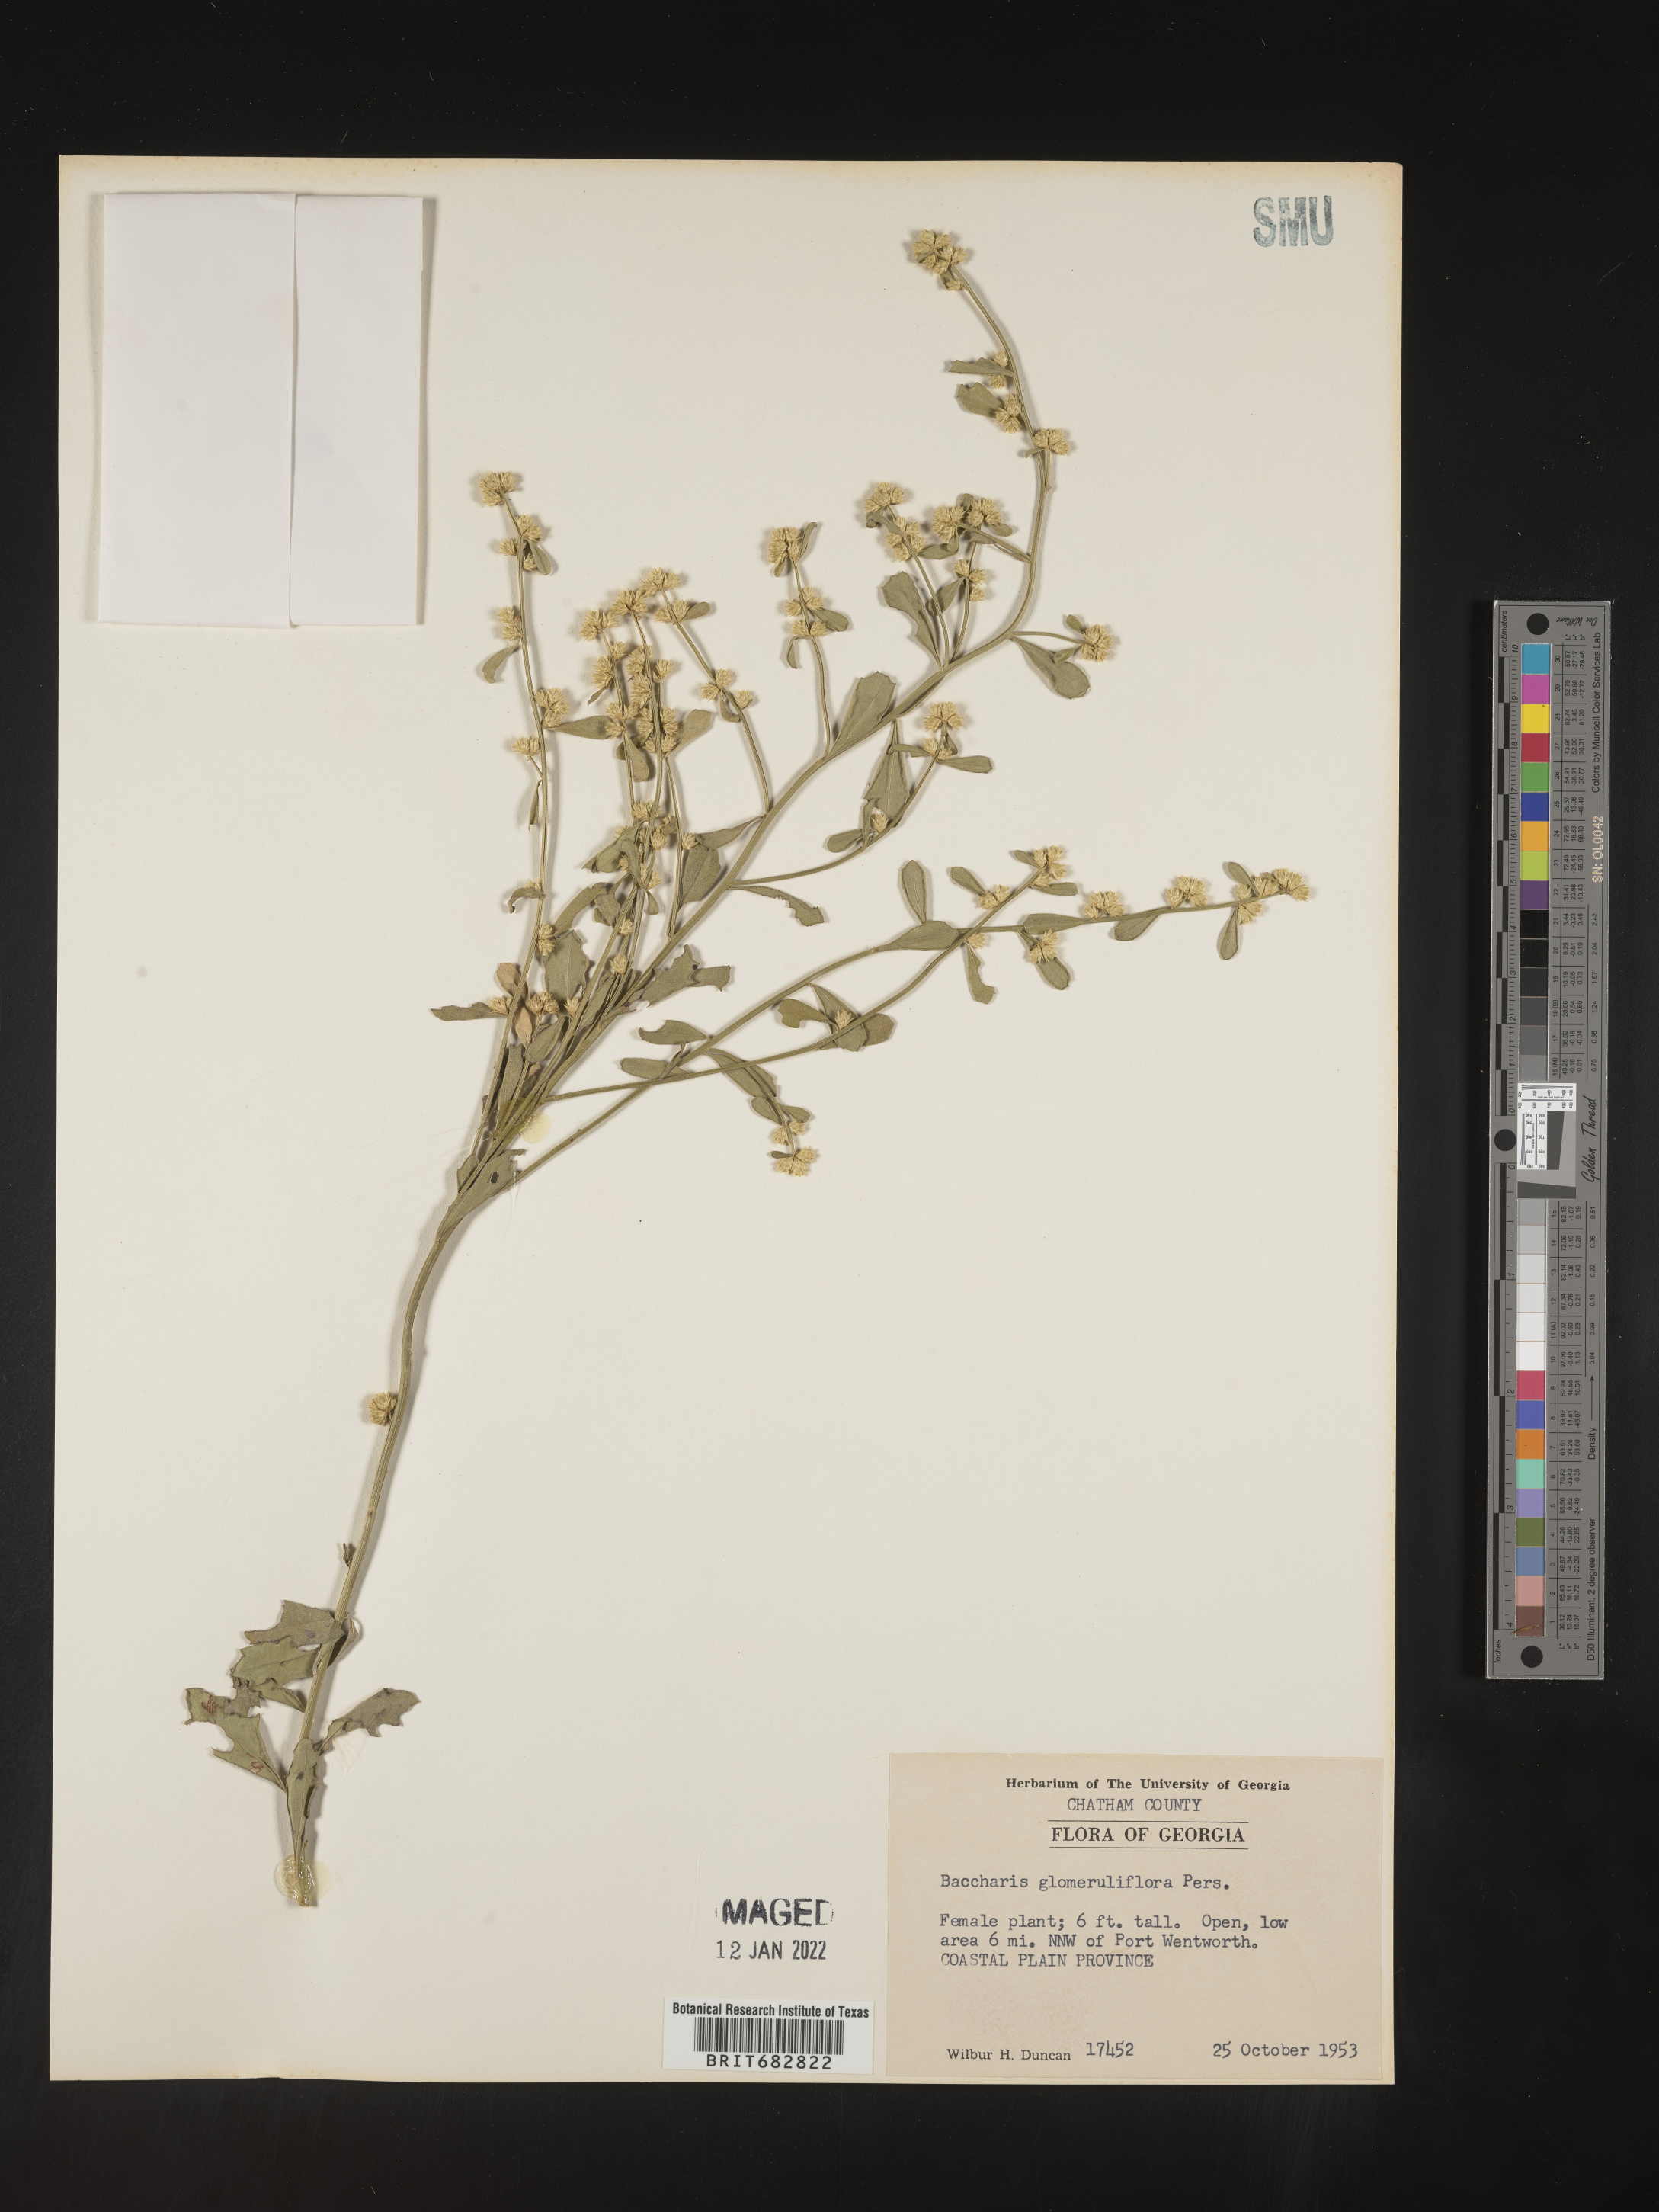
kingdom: Plantae
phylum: Tracheophyta
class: Magnoliopsida
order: Asterales
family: Asteraceae
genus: Baccharis
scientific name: Baccharis glomeruliflora
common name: Silverling groundsel bush
